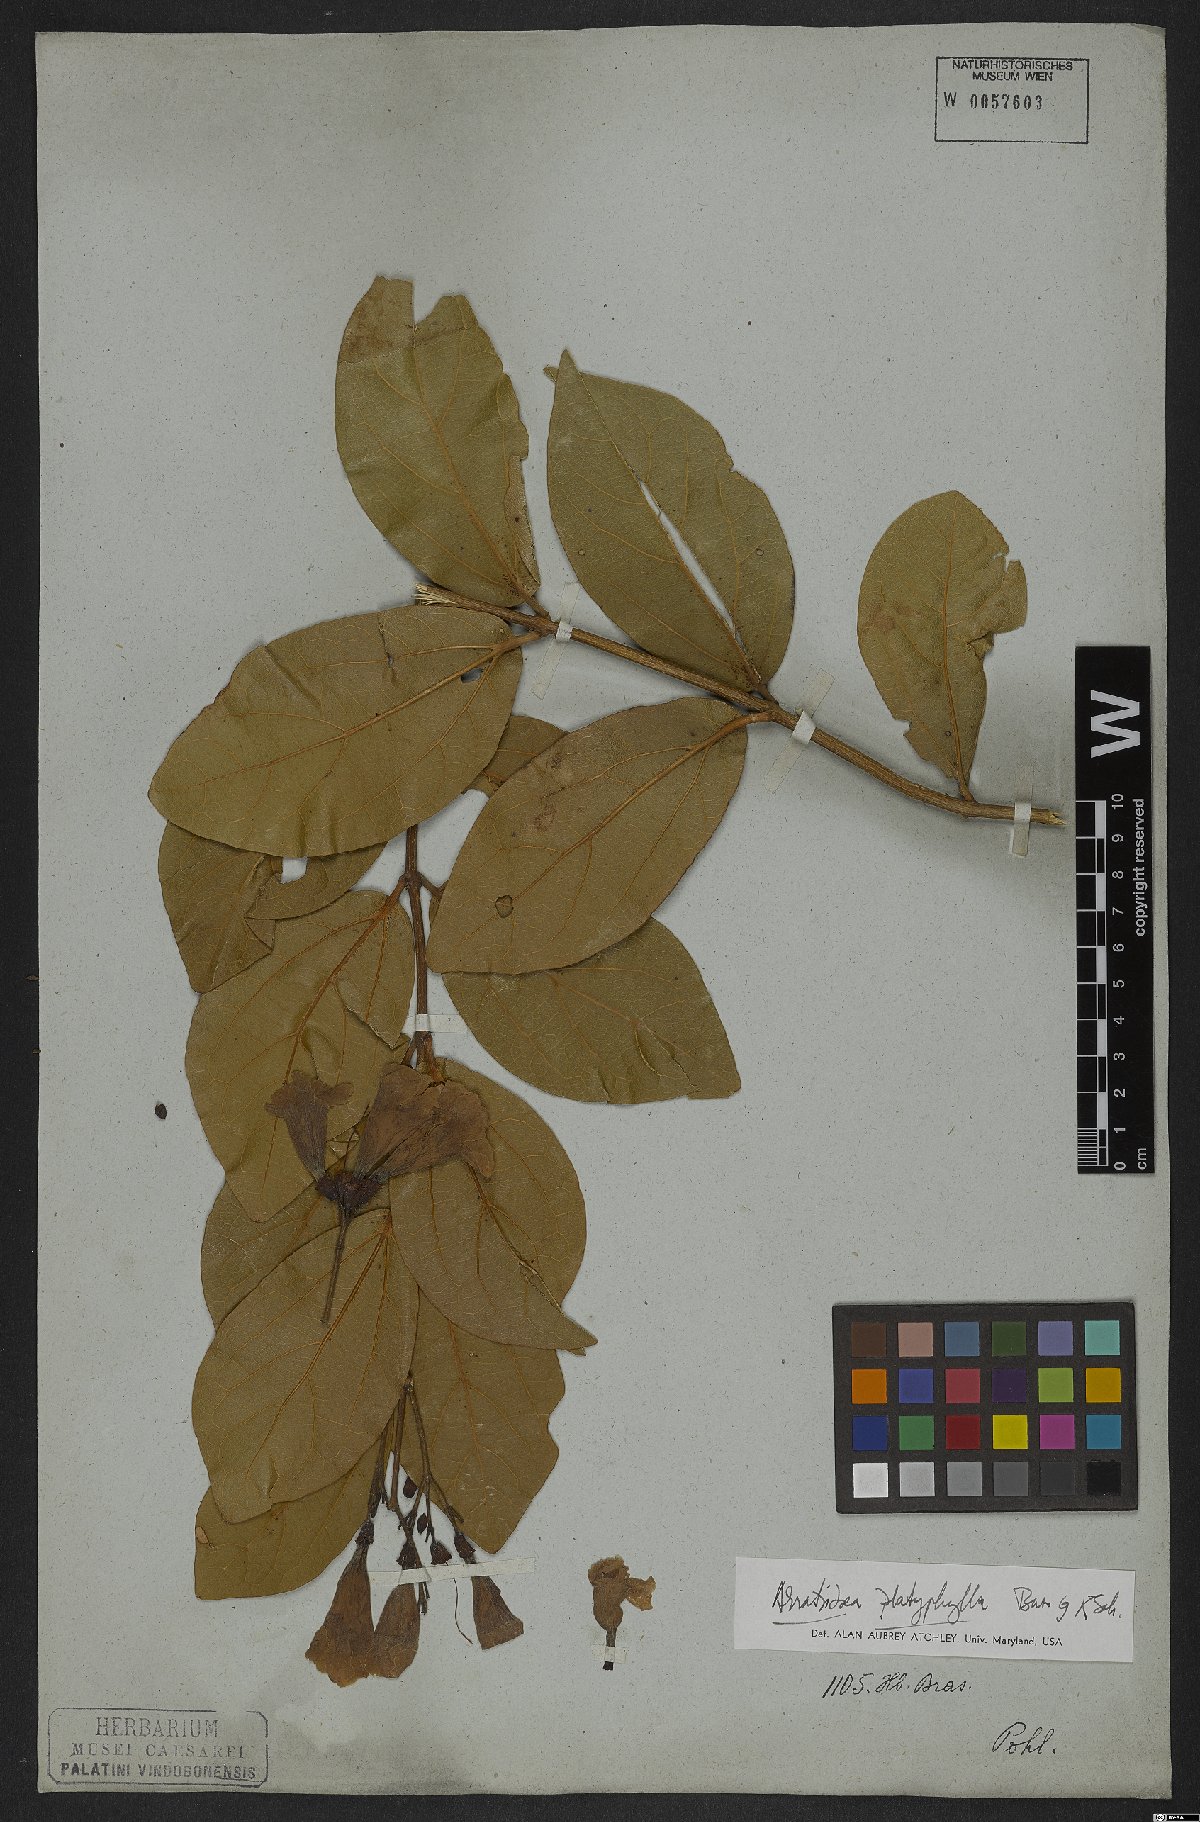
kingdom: Plantae
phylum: Tracheophyta
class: Magnoliopsida
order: Lamiales
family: Bignoniaceae
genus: Xylophragma
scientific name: Xylophragma platyphyllum
